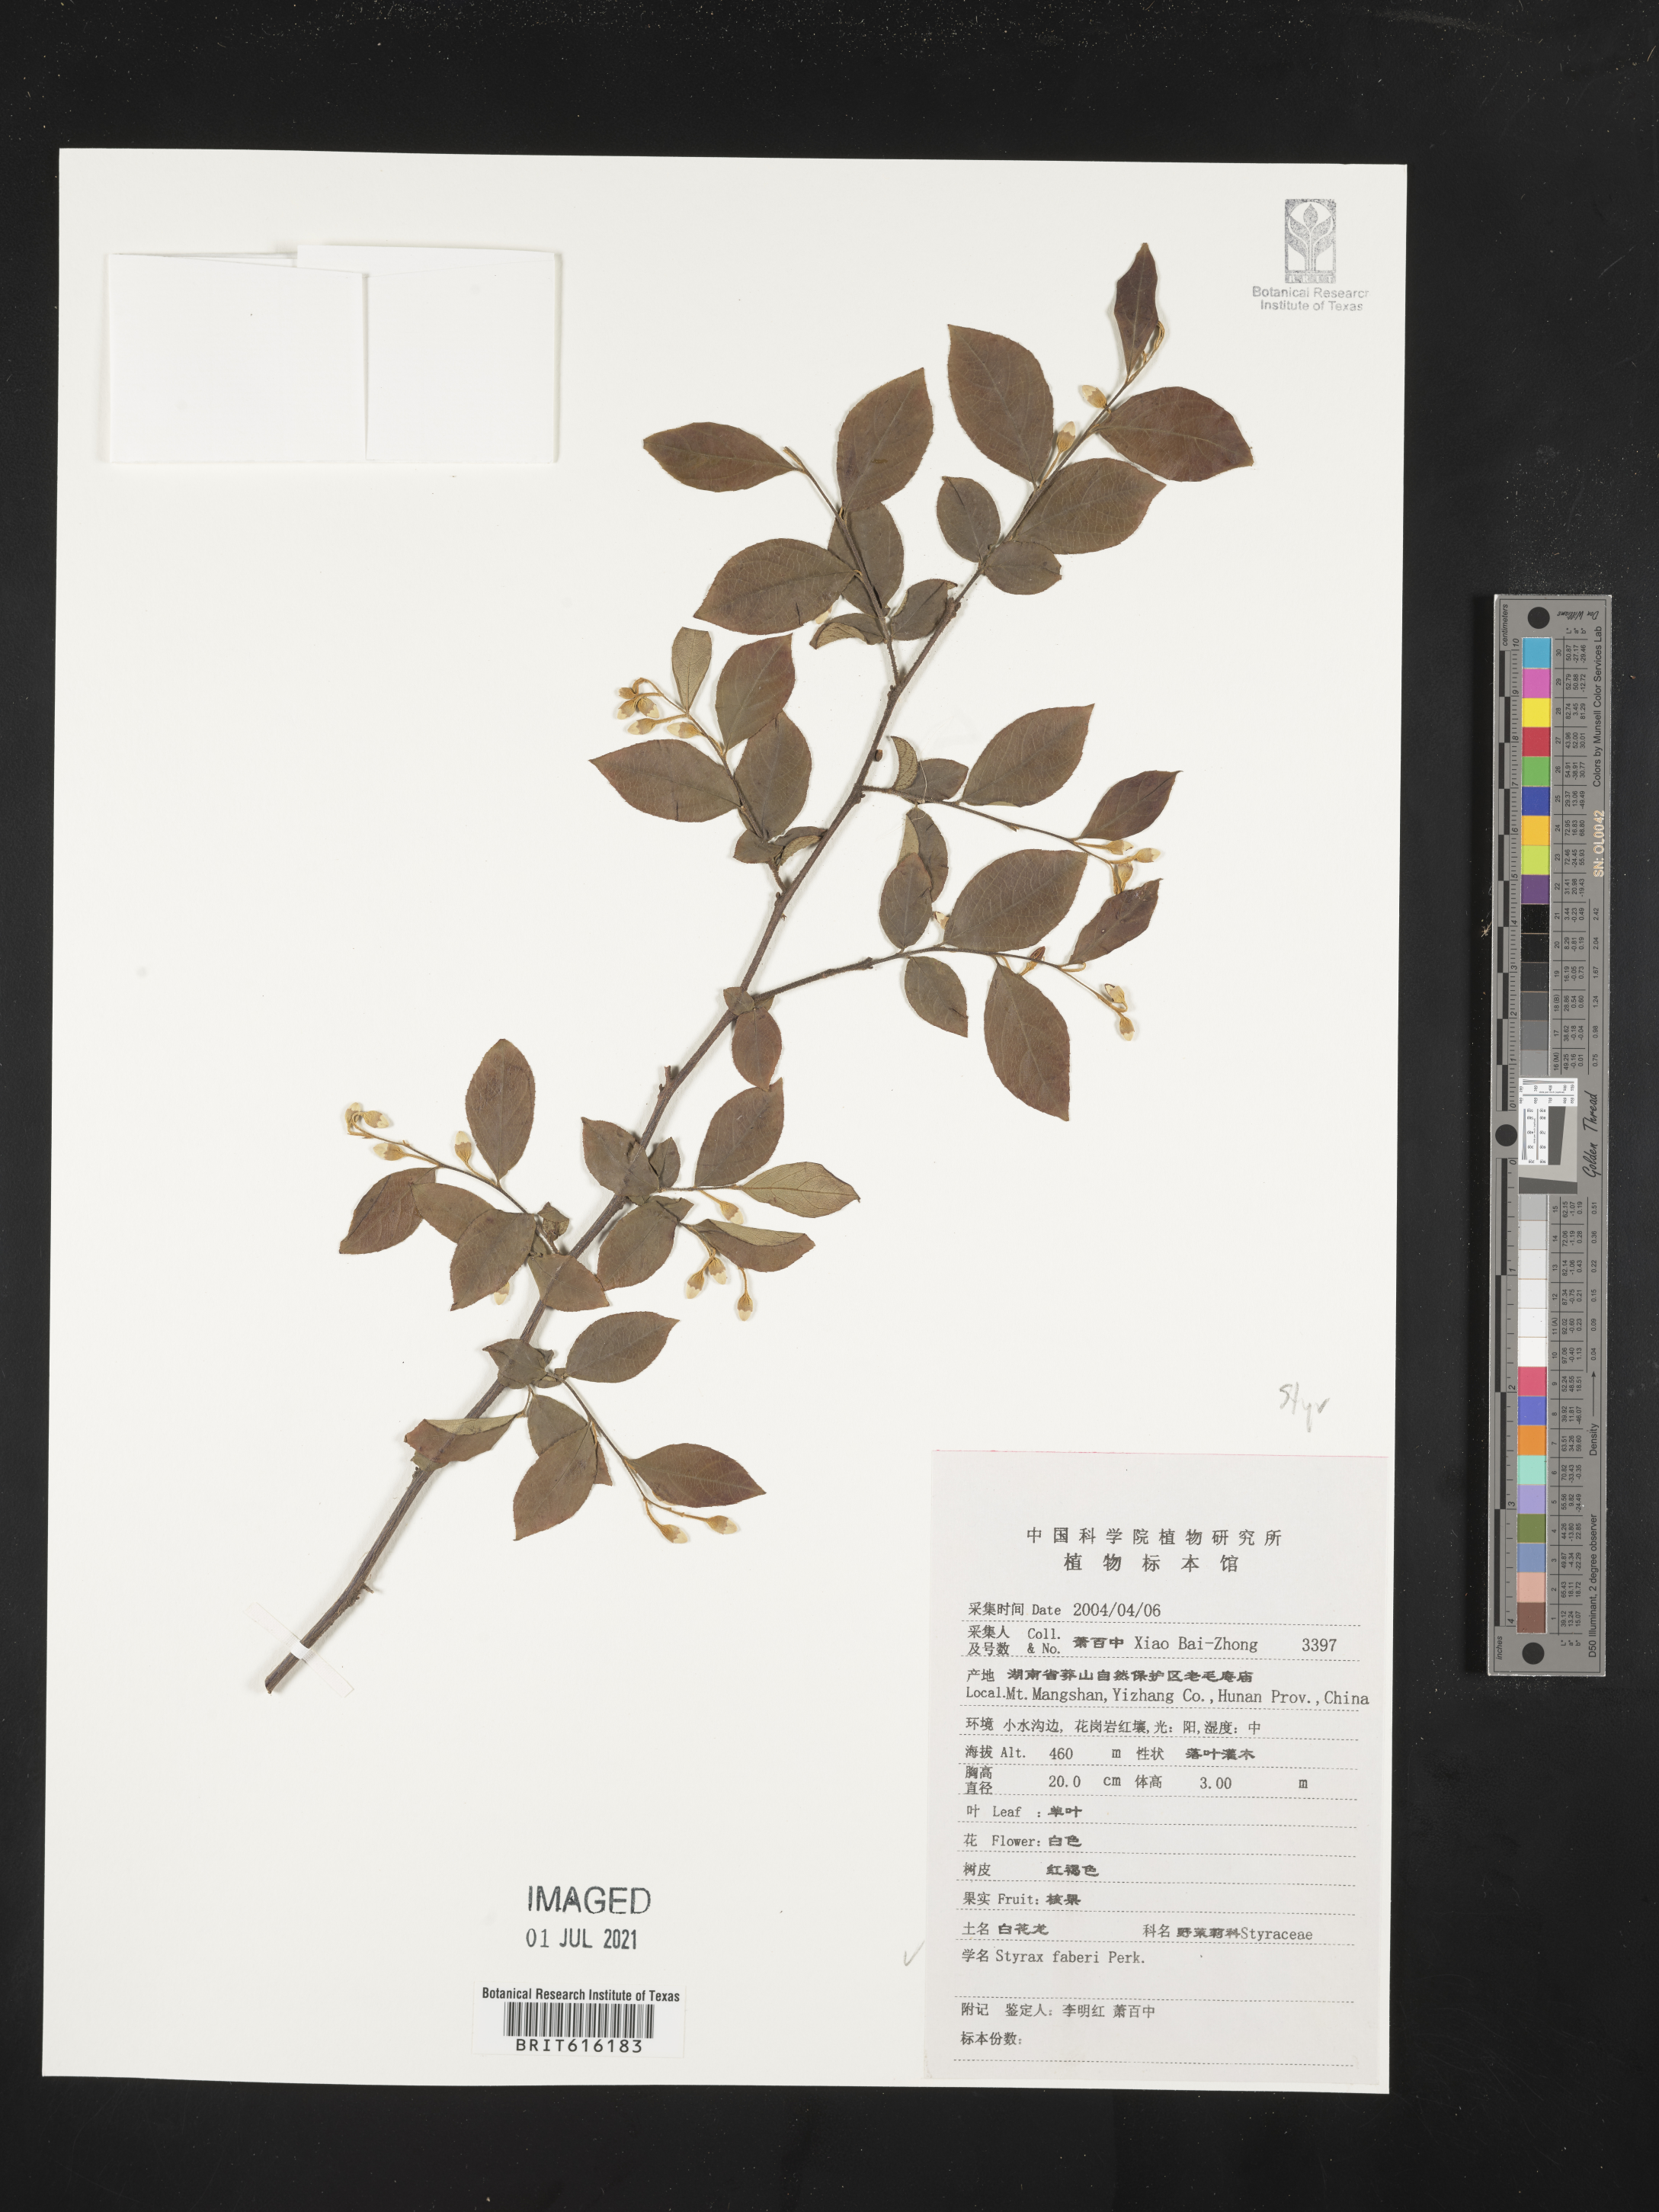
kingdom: Plantae
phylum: Tracheophyta
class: Magnoliopsida
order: Ericales
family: Styracaceae
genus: Styrax
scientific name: Styrax faberi
